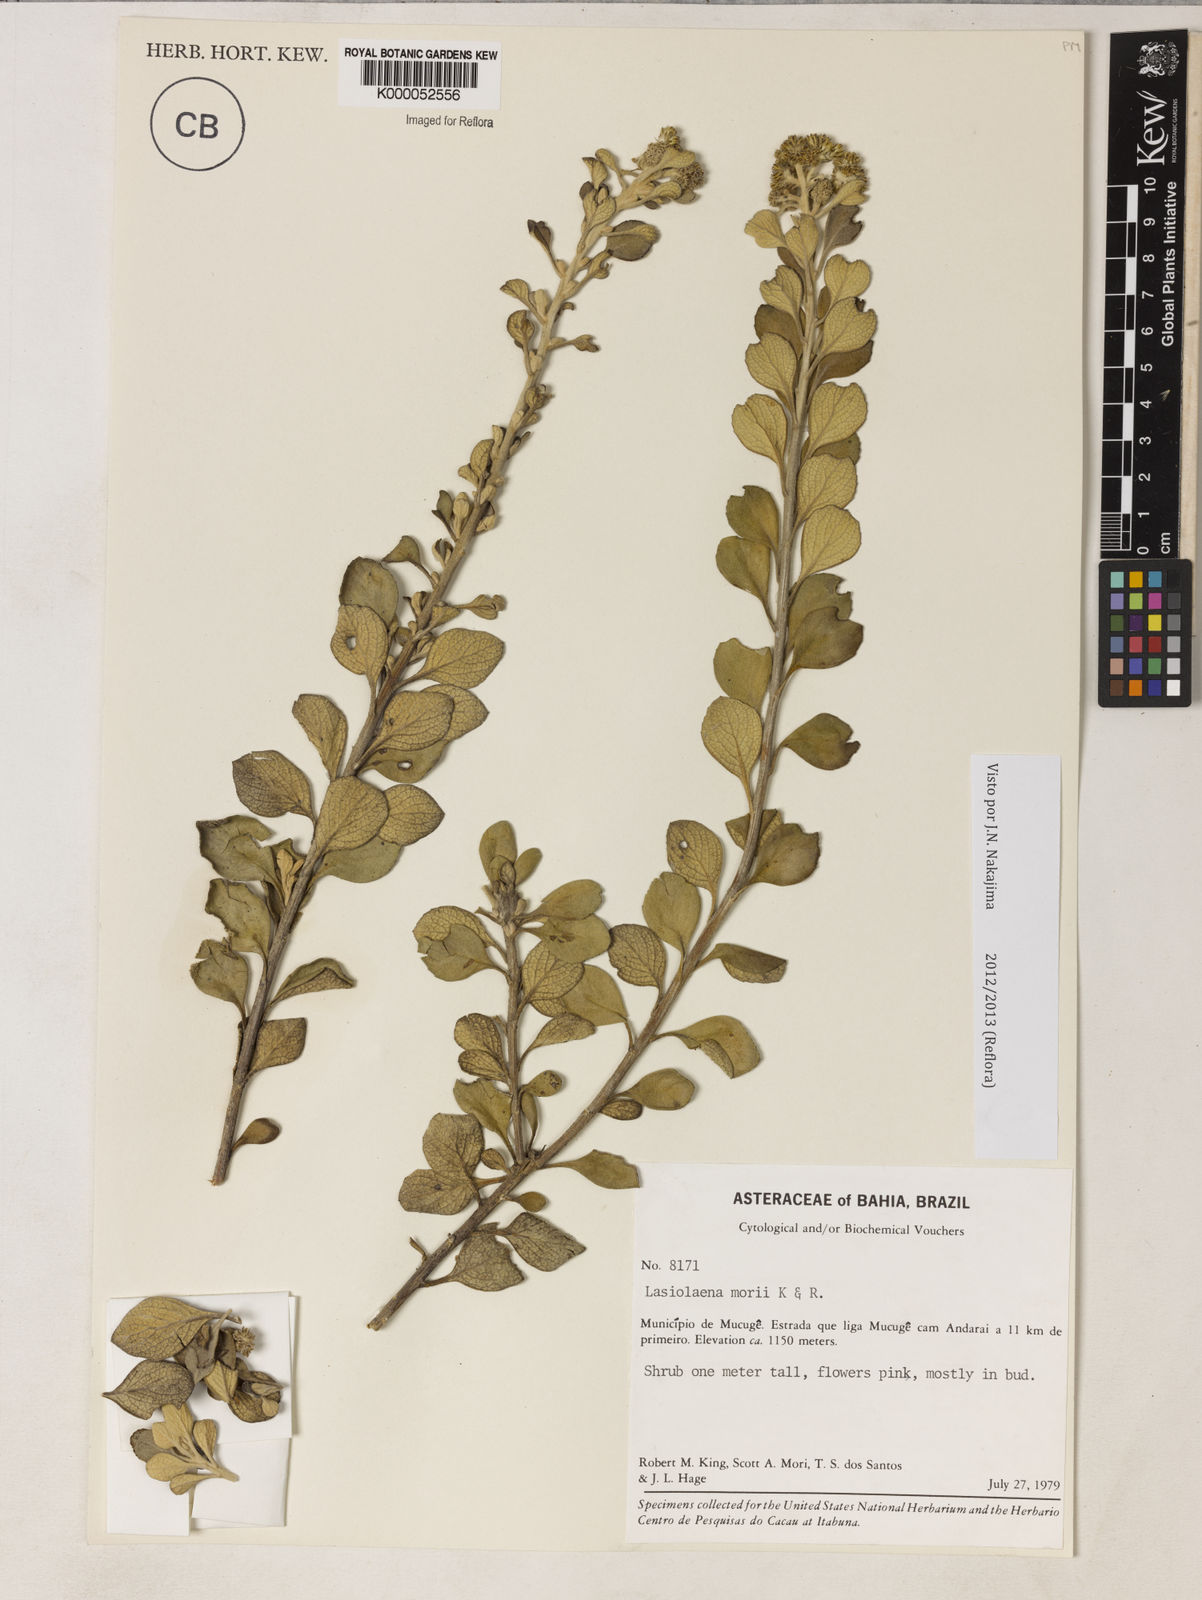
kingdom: Plantae
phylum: Tracheophyta
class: Magnoliopsida
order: Asterales
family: Asteraceae
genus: Lasiolaena
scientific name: Lasiolaena morii
